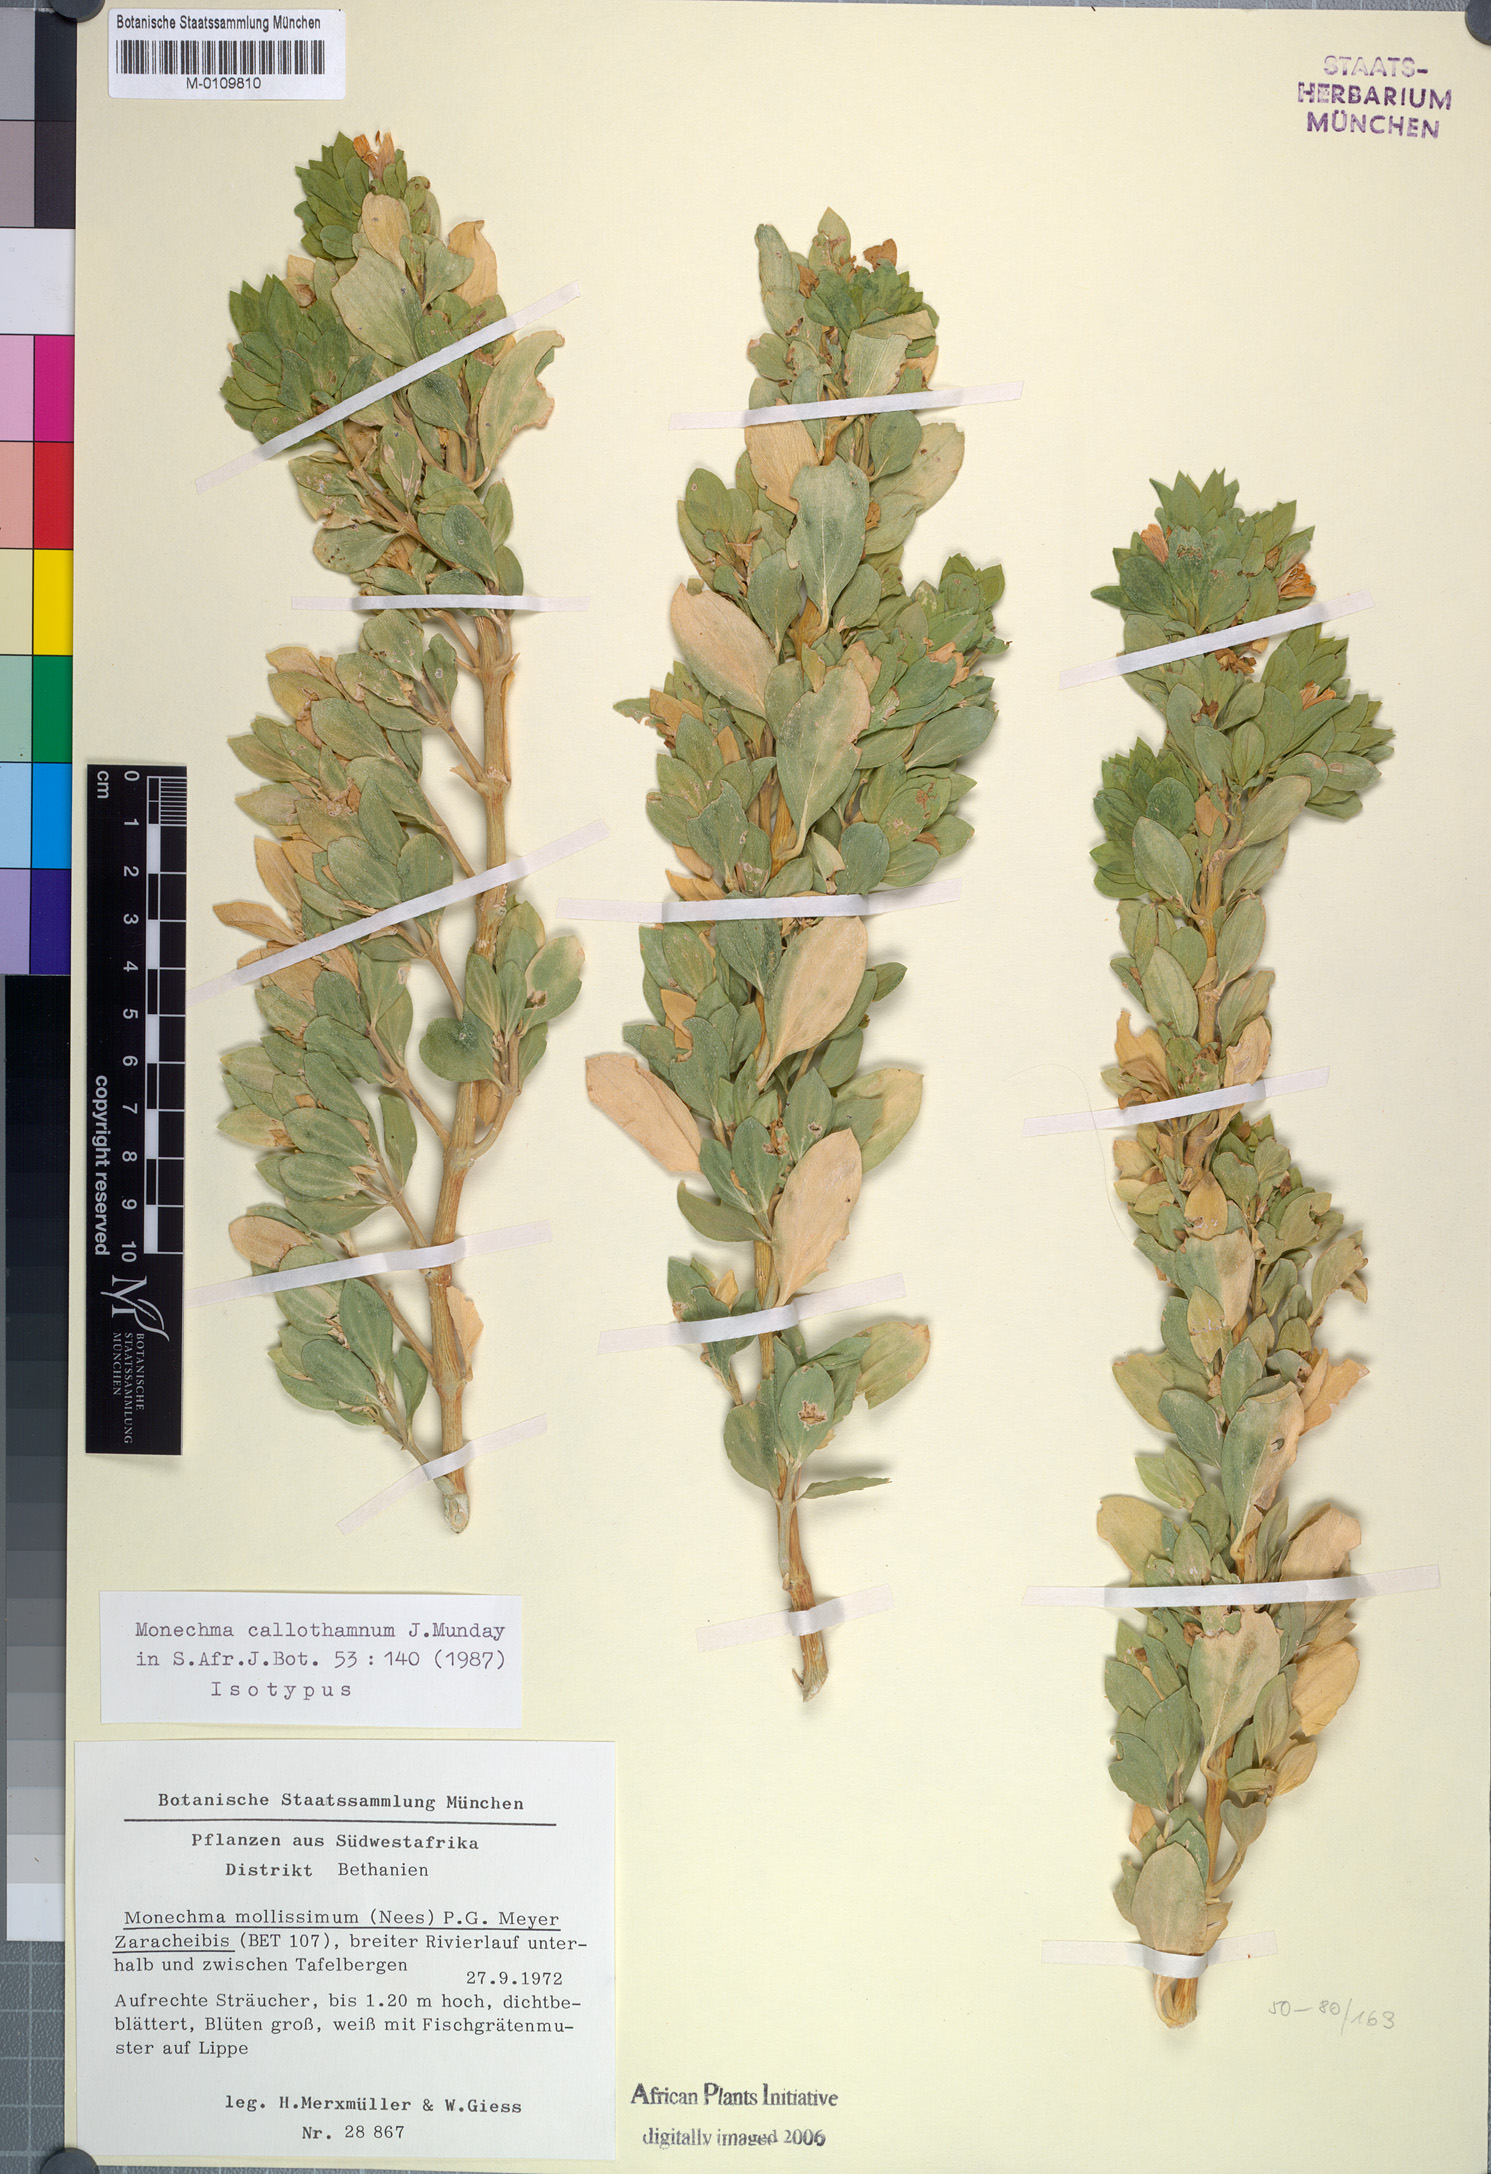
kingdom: Plantae
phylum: Tracheophyta
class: Magnoliopsida
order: Lamiales
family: Acanthaceae
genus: Monechma
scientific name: Monechma callothamnum
